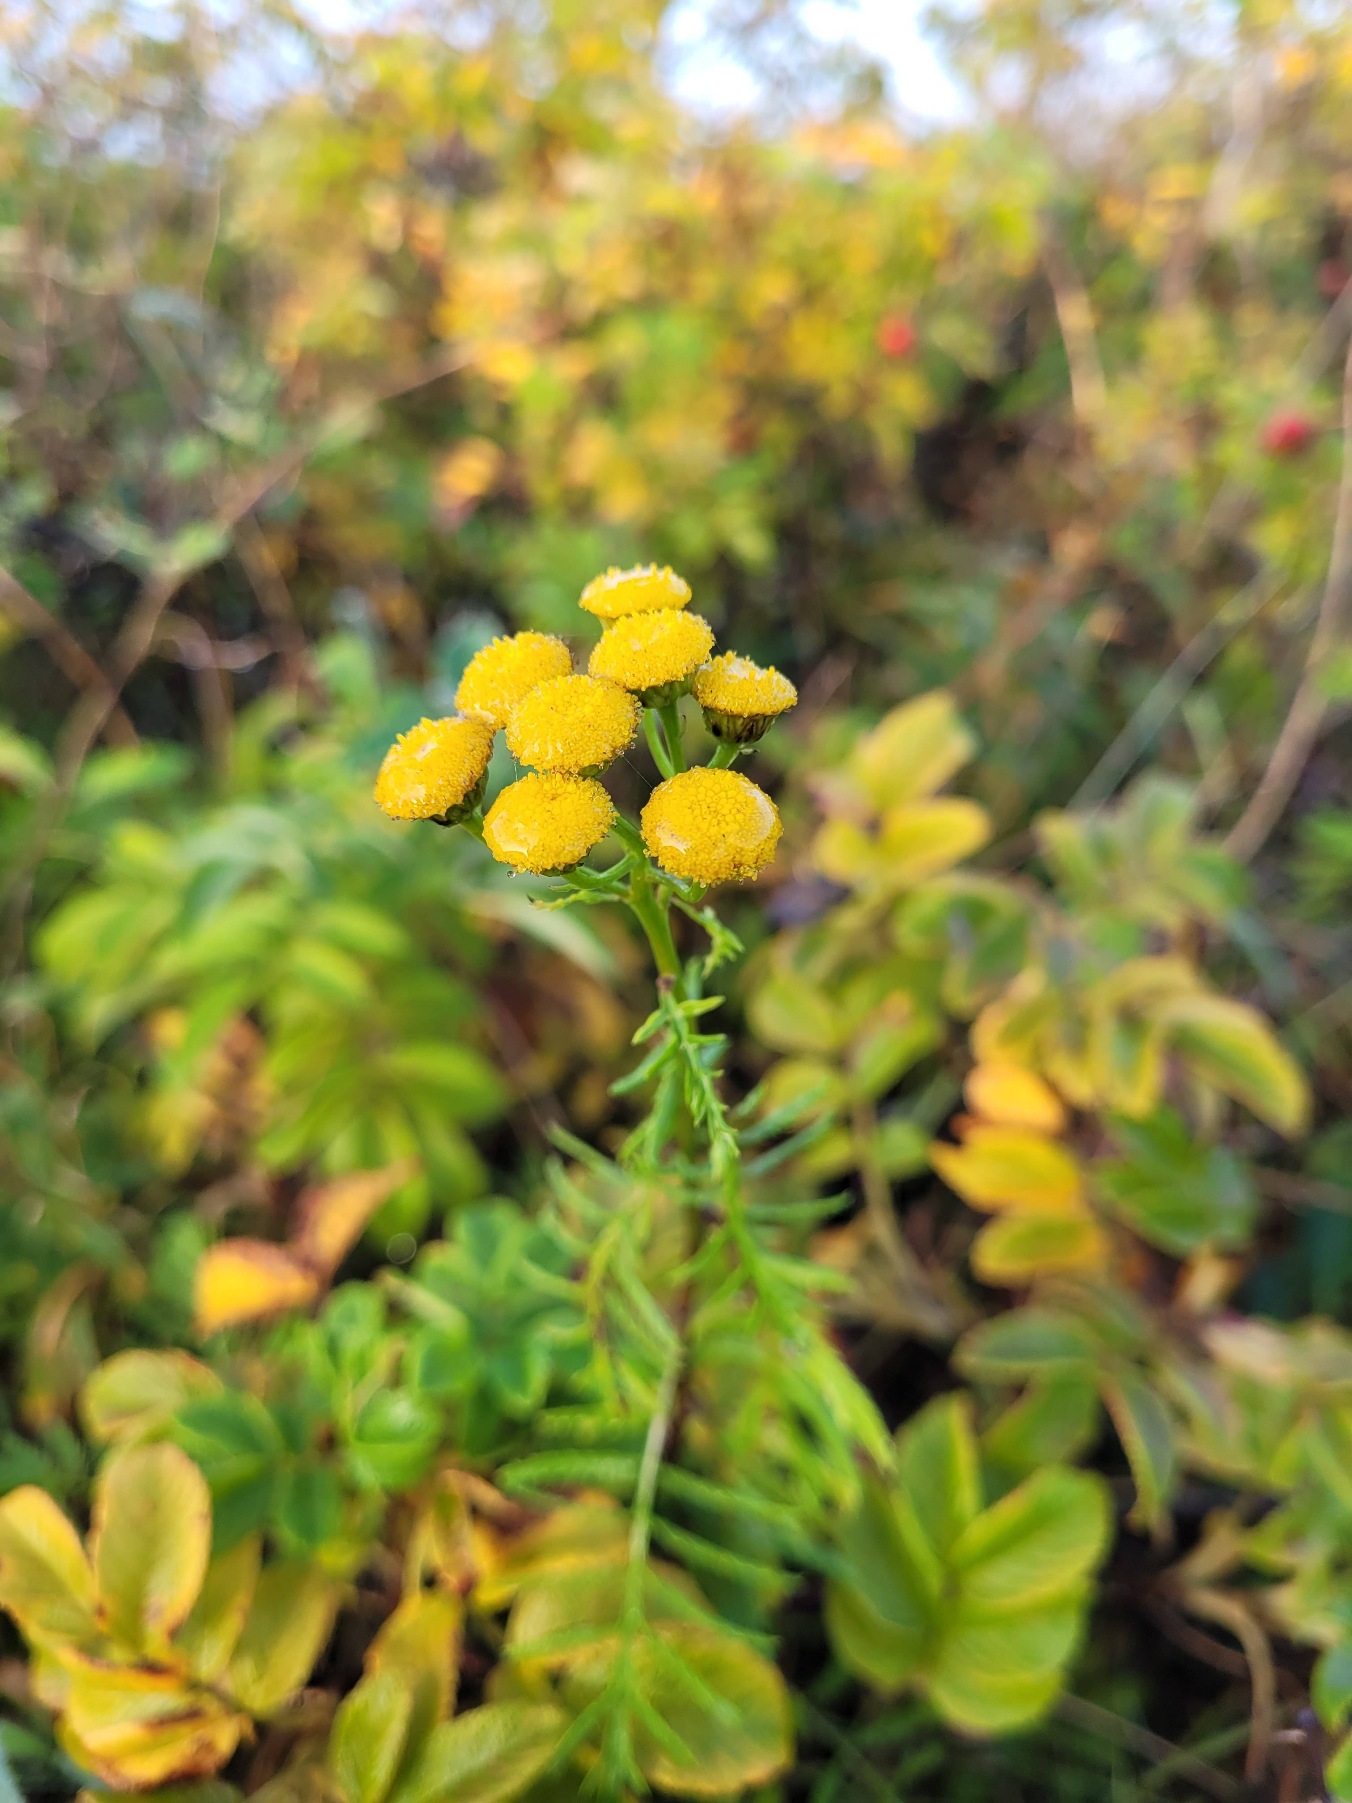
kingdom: Plantae
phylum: Tracheophyta
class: Magnoliopsida
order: Asterales
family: Asteraceae
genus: Tanacetum
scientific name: Tanacetum vulgare
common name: Rejnfan
